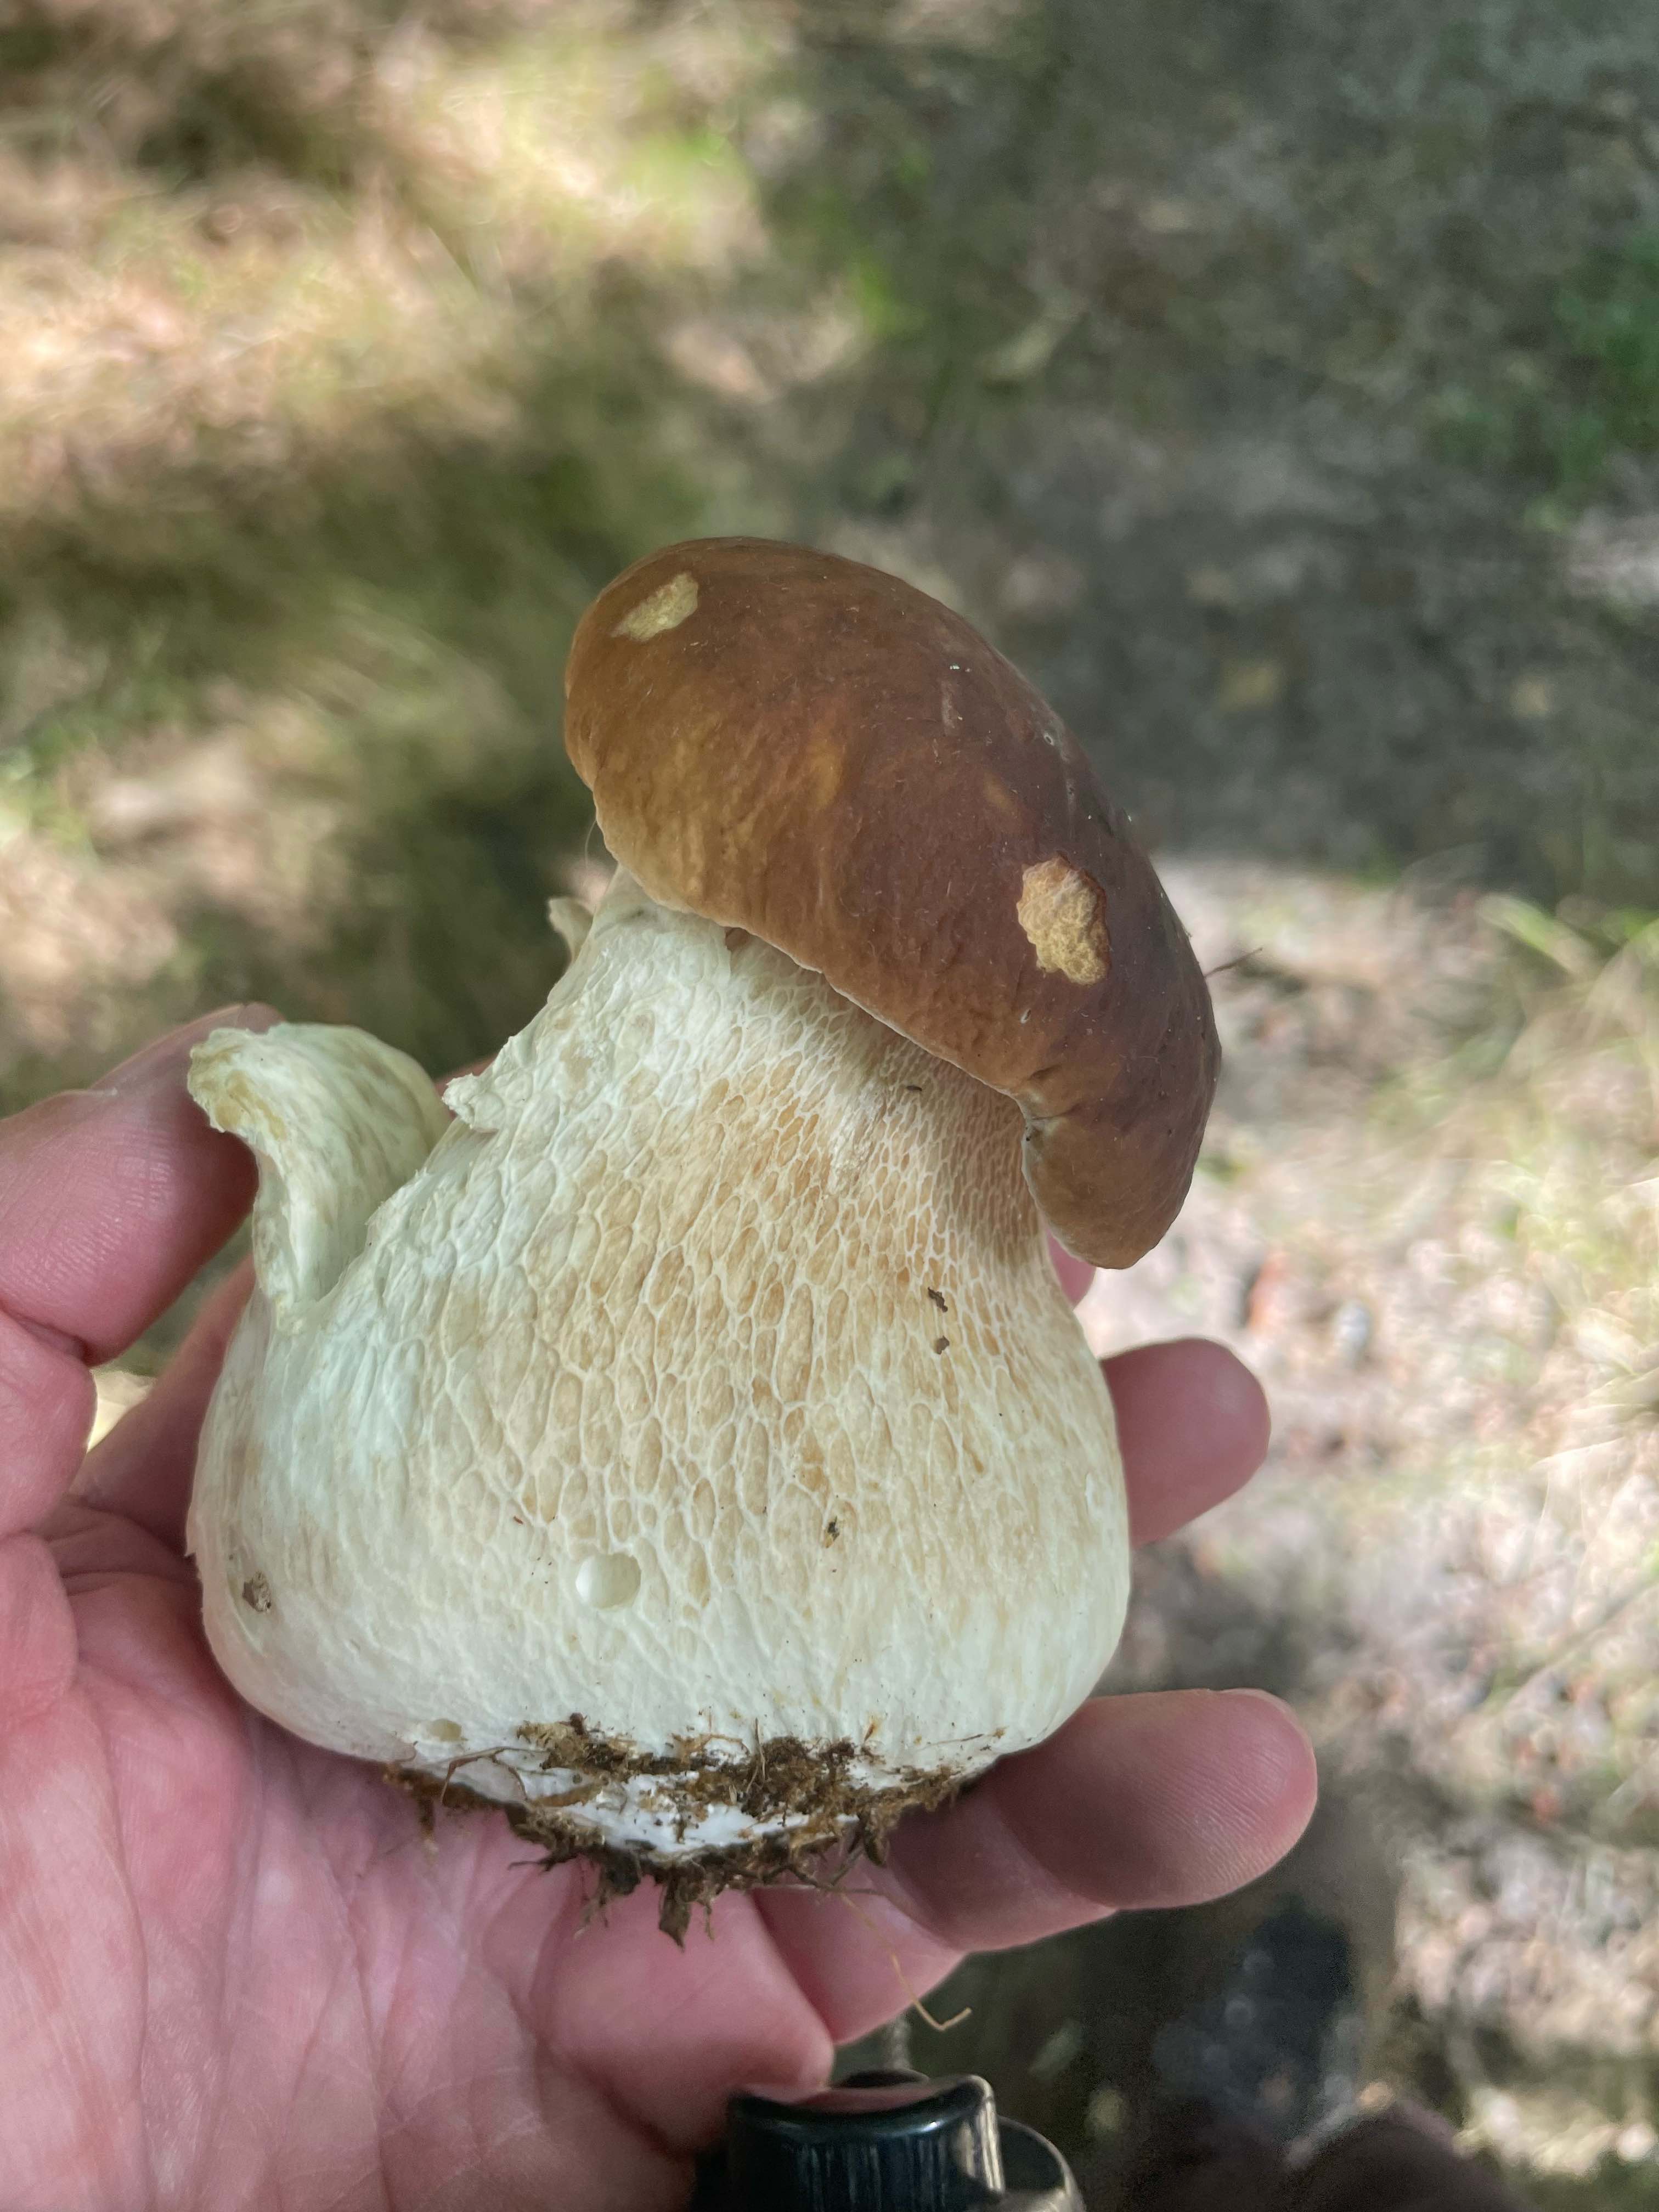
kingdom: Fungi
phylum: Basidiomycota
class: Agaricomycetes
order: Boletales
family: Boletaceae
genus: Boletus
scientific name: Boletus edulis
